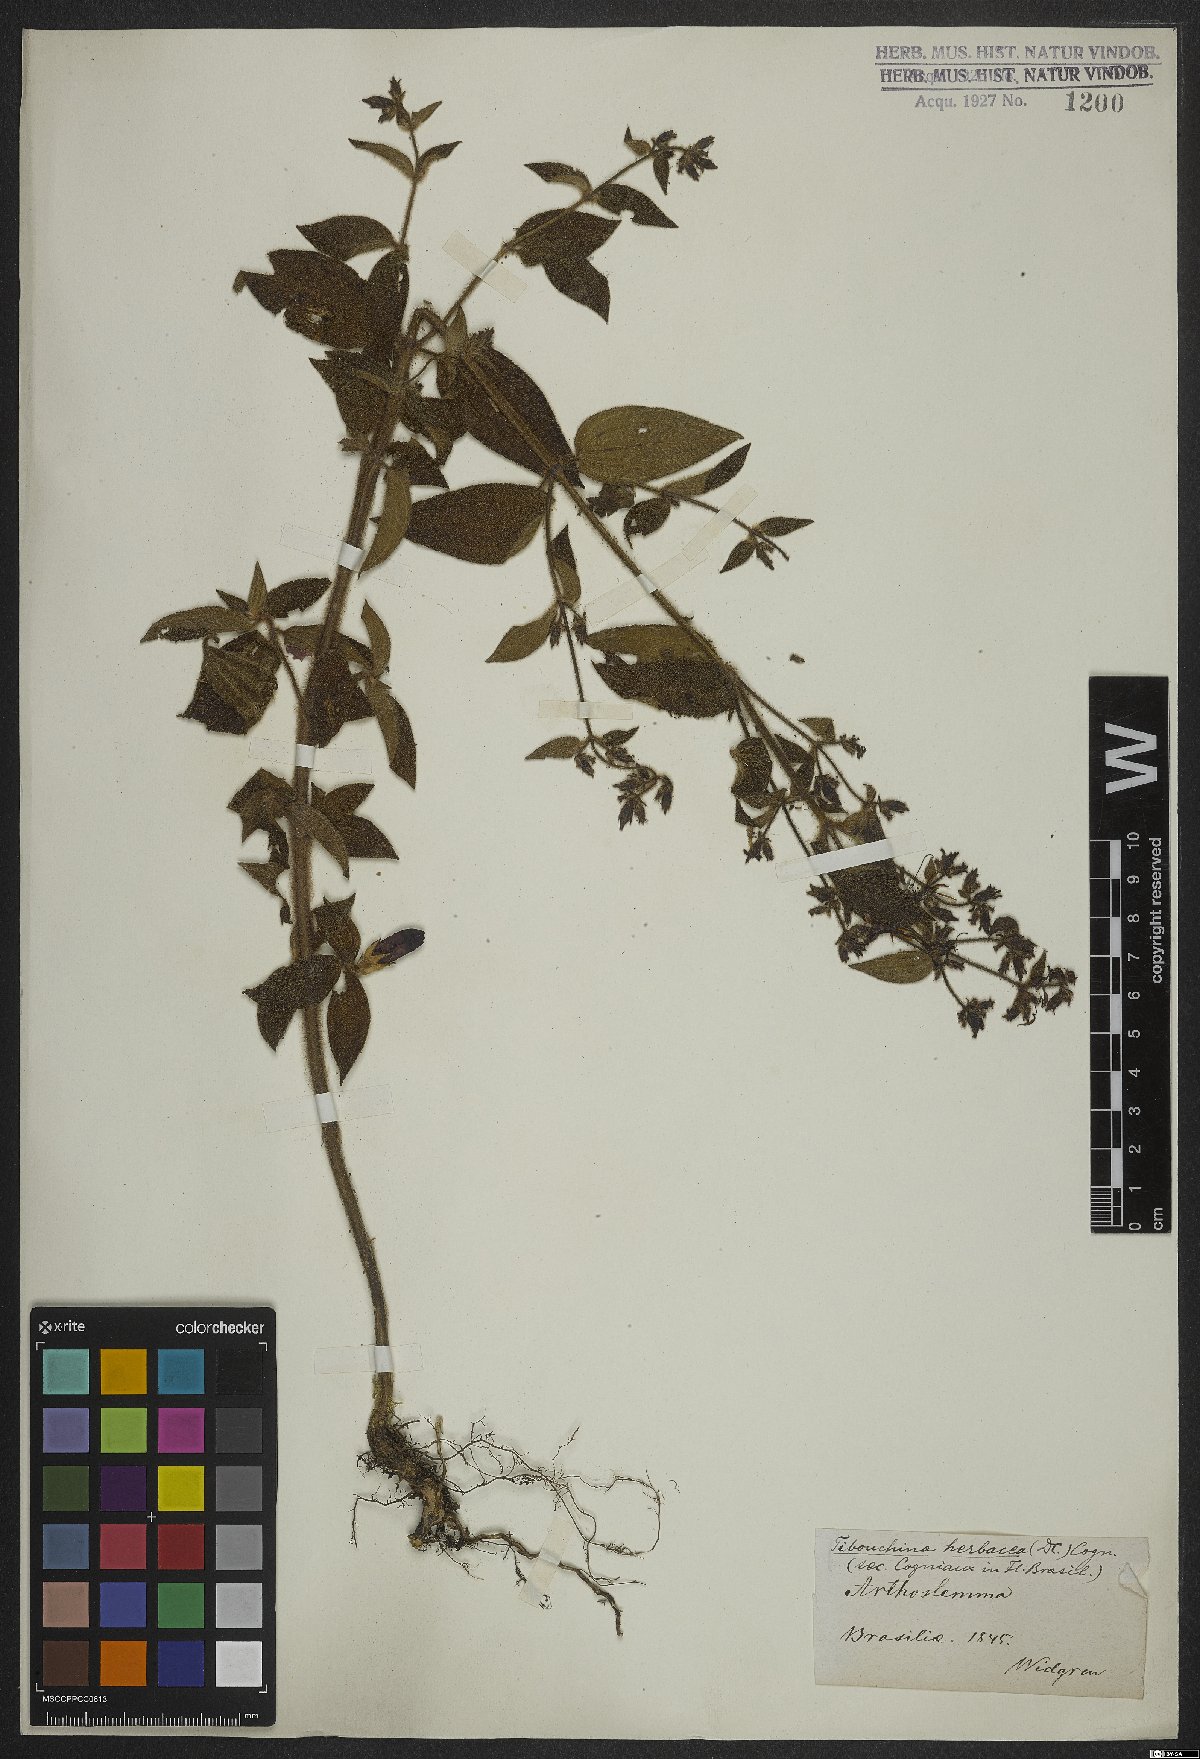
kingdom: Plantae
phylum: Tracheophyta
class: Magnoliopsida
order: Myrtales
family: Melastomataceae
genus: Chaetogastra
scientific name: Chaetogastra herbacea
